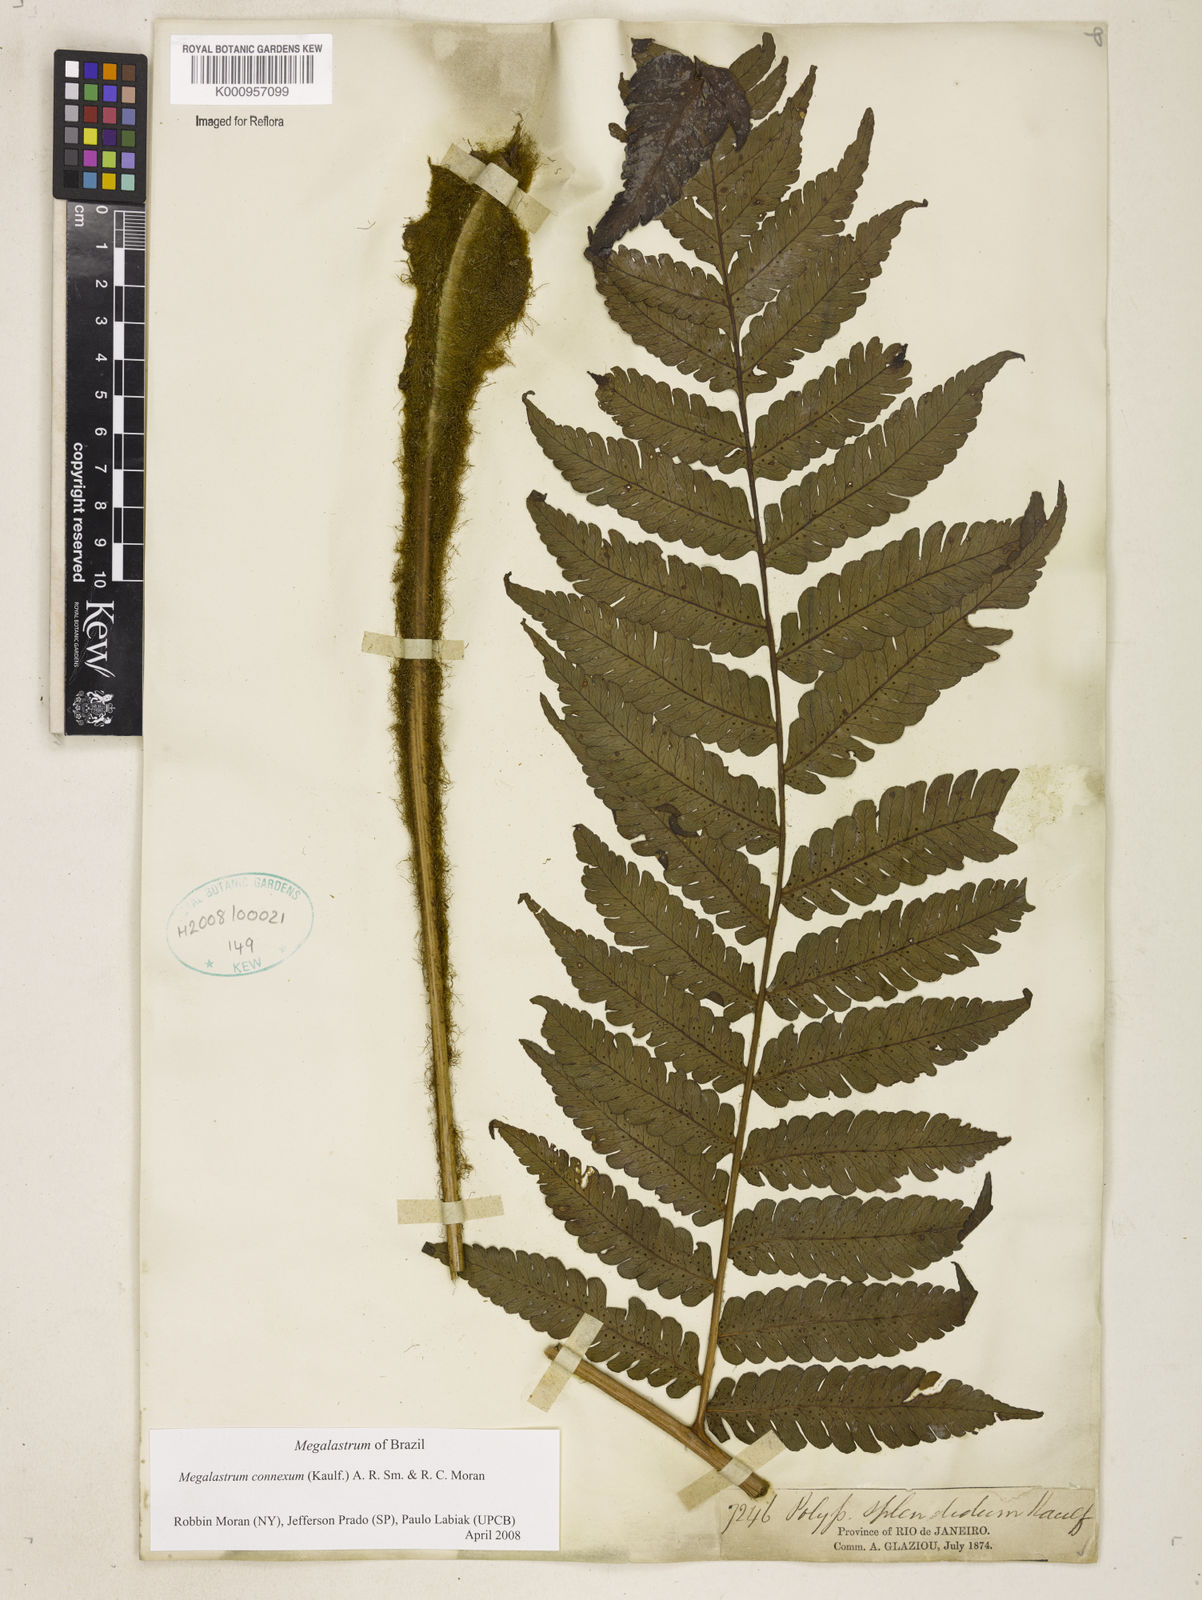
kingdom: Plantae
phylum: Tracheophyta
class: Polypodiopsida
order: Polypodiales
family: Dryopteridaceae
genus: Megalastrum
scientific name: Megalastrum connexum
